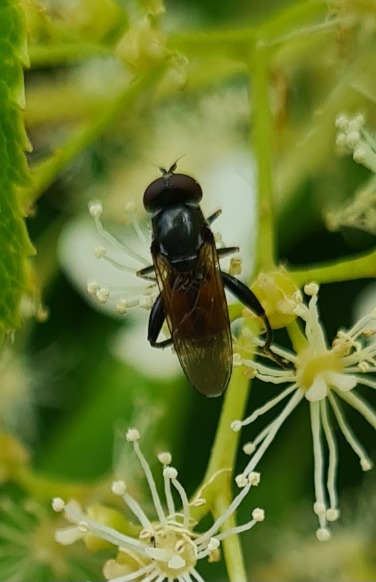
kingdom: Animalia
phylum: Arthropoda
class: Insecta
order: Diptera
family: Syrphidae
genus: Tropidia
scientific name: Tropidia scita
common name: Køl-svirreflue
